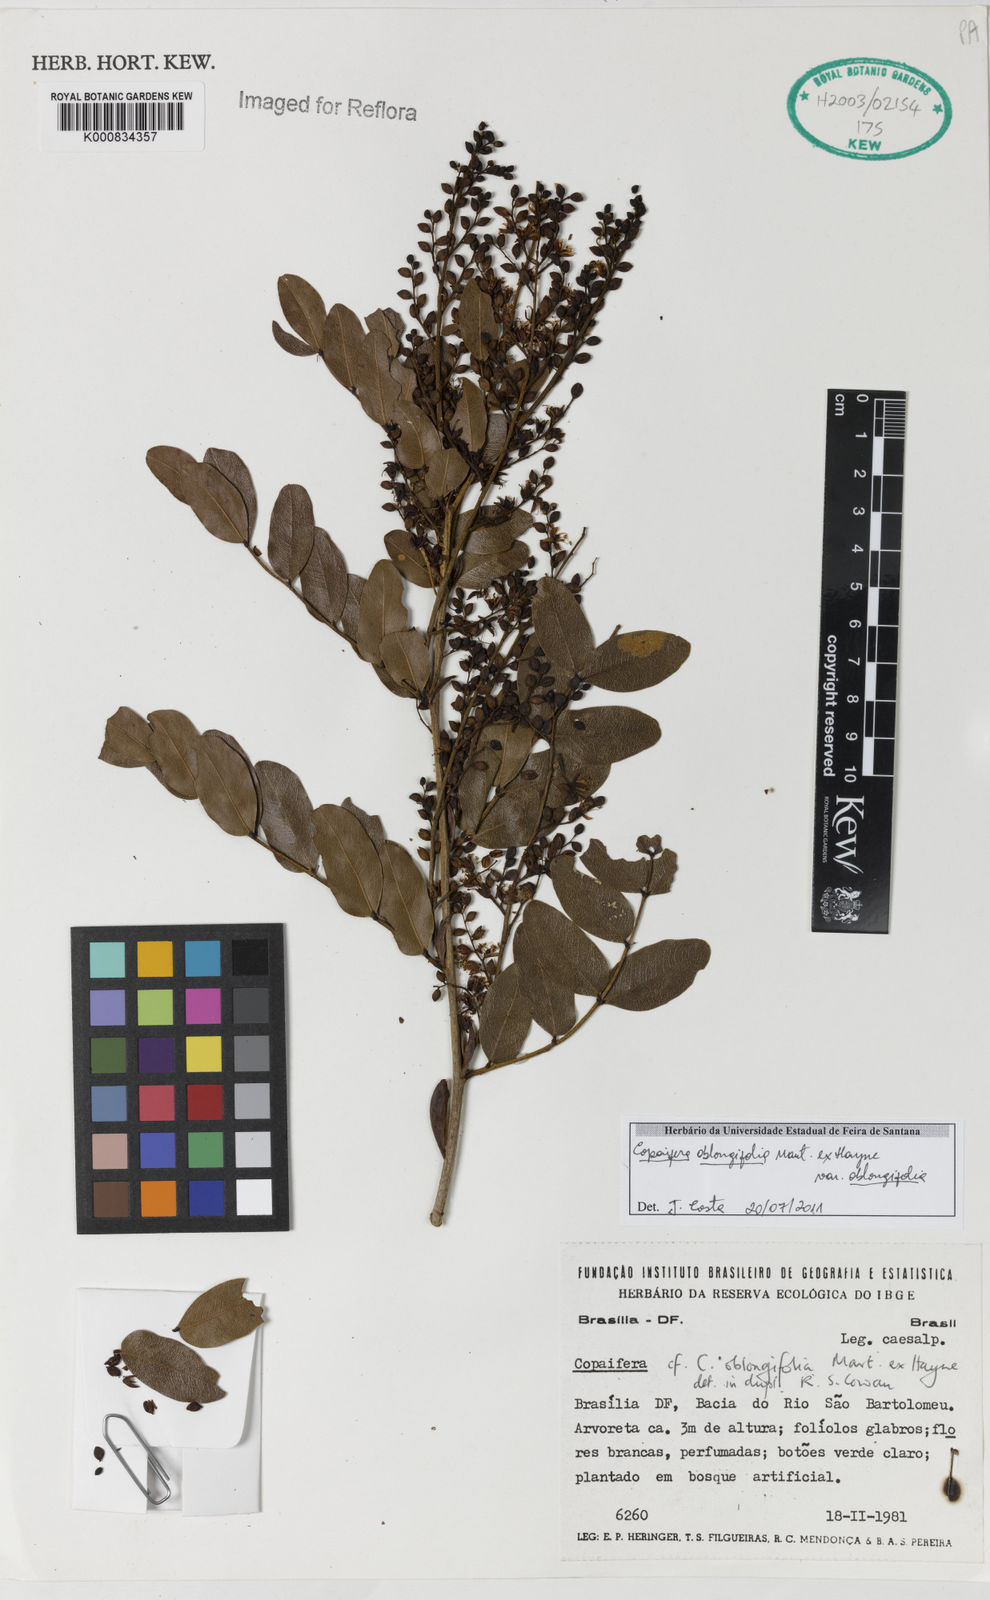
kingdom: Plantae
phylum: Tracheophyta
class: Magnoliopsida
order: Fabales
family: Fabaceae
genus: Copaifera
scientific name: Copaifera oblongifolia
